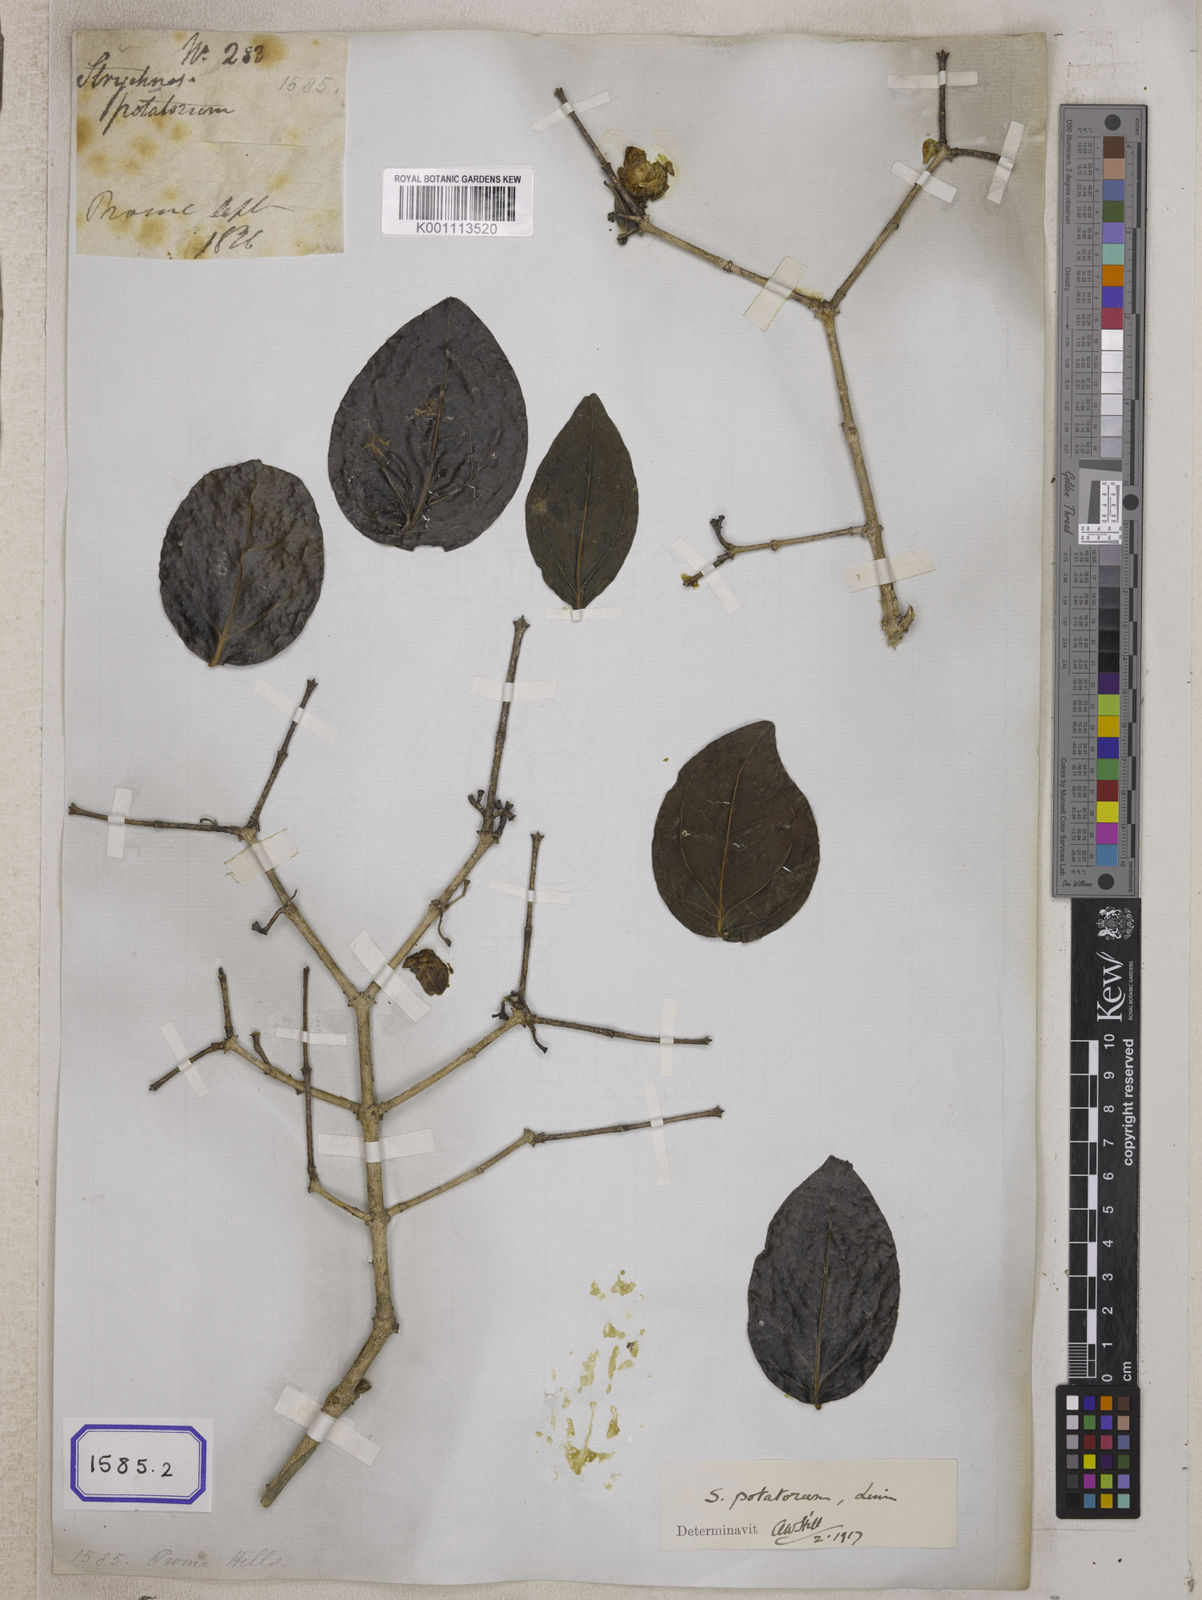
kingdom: Plantae
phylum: Tracheophyta
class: Magnoliopsida
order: Gentianales
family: Loganiaceae
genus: Strychnos
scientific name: Strychnos potatorum
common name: Clearing-nut-tree
